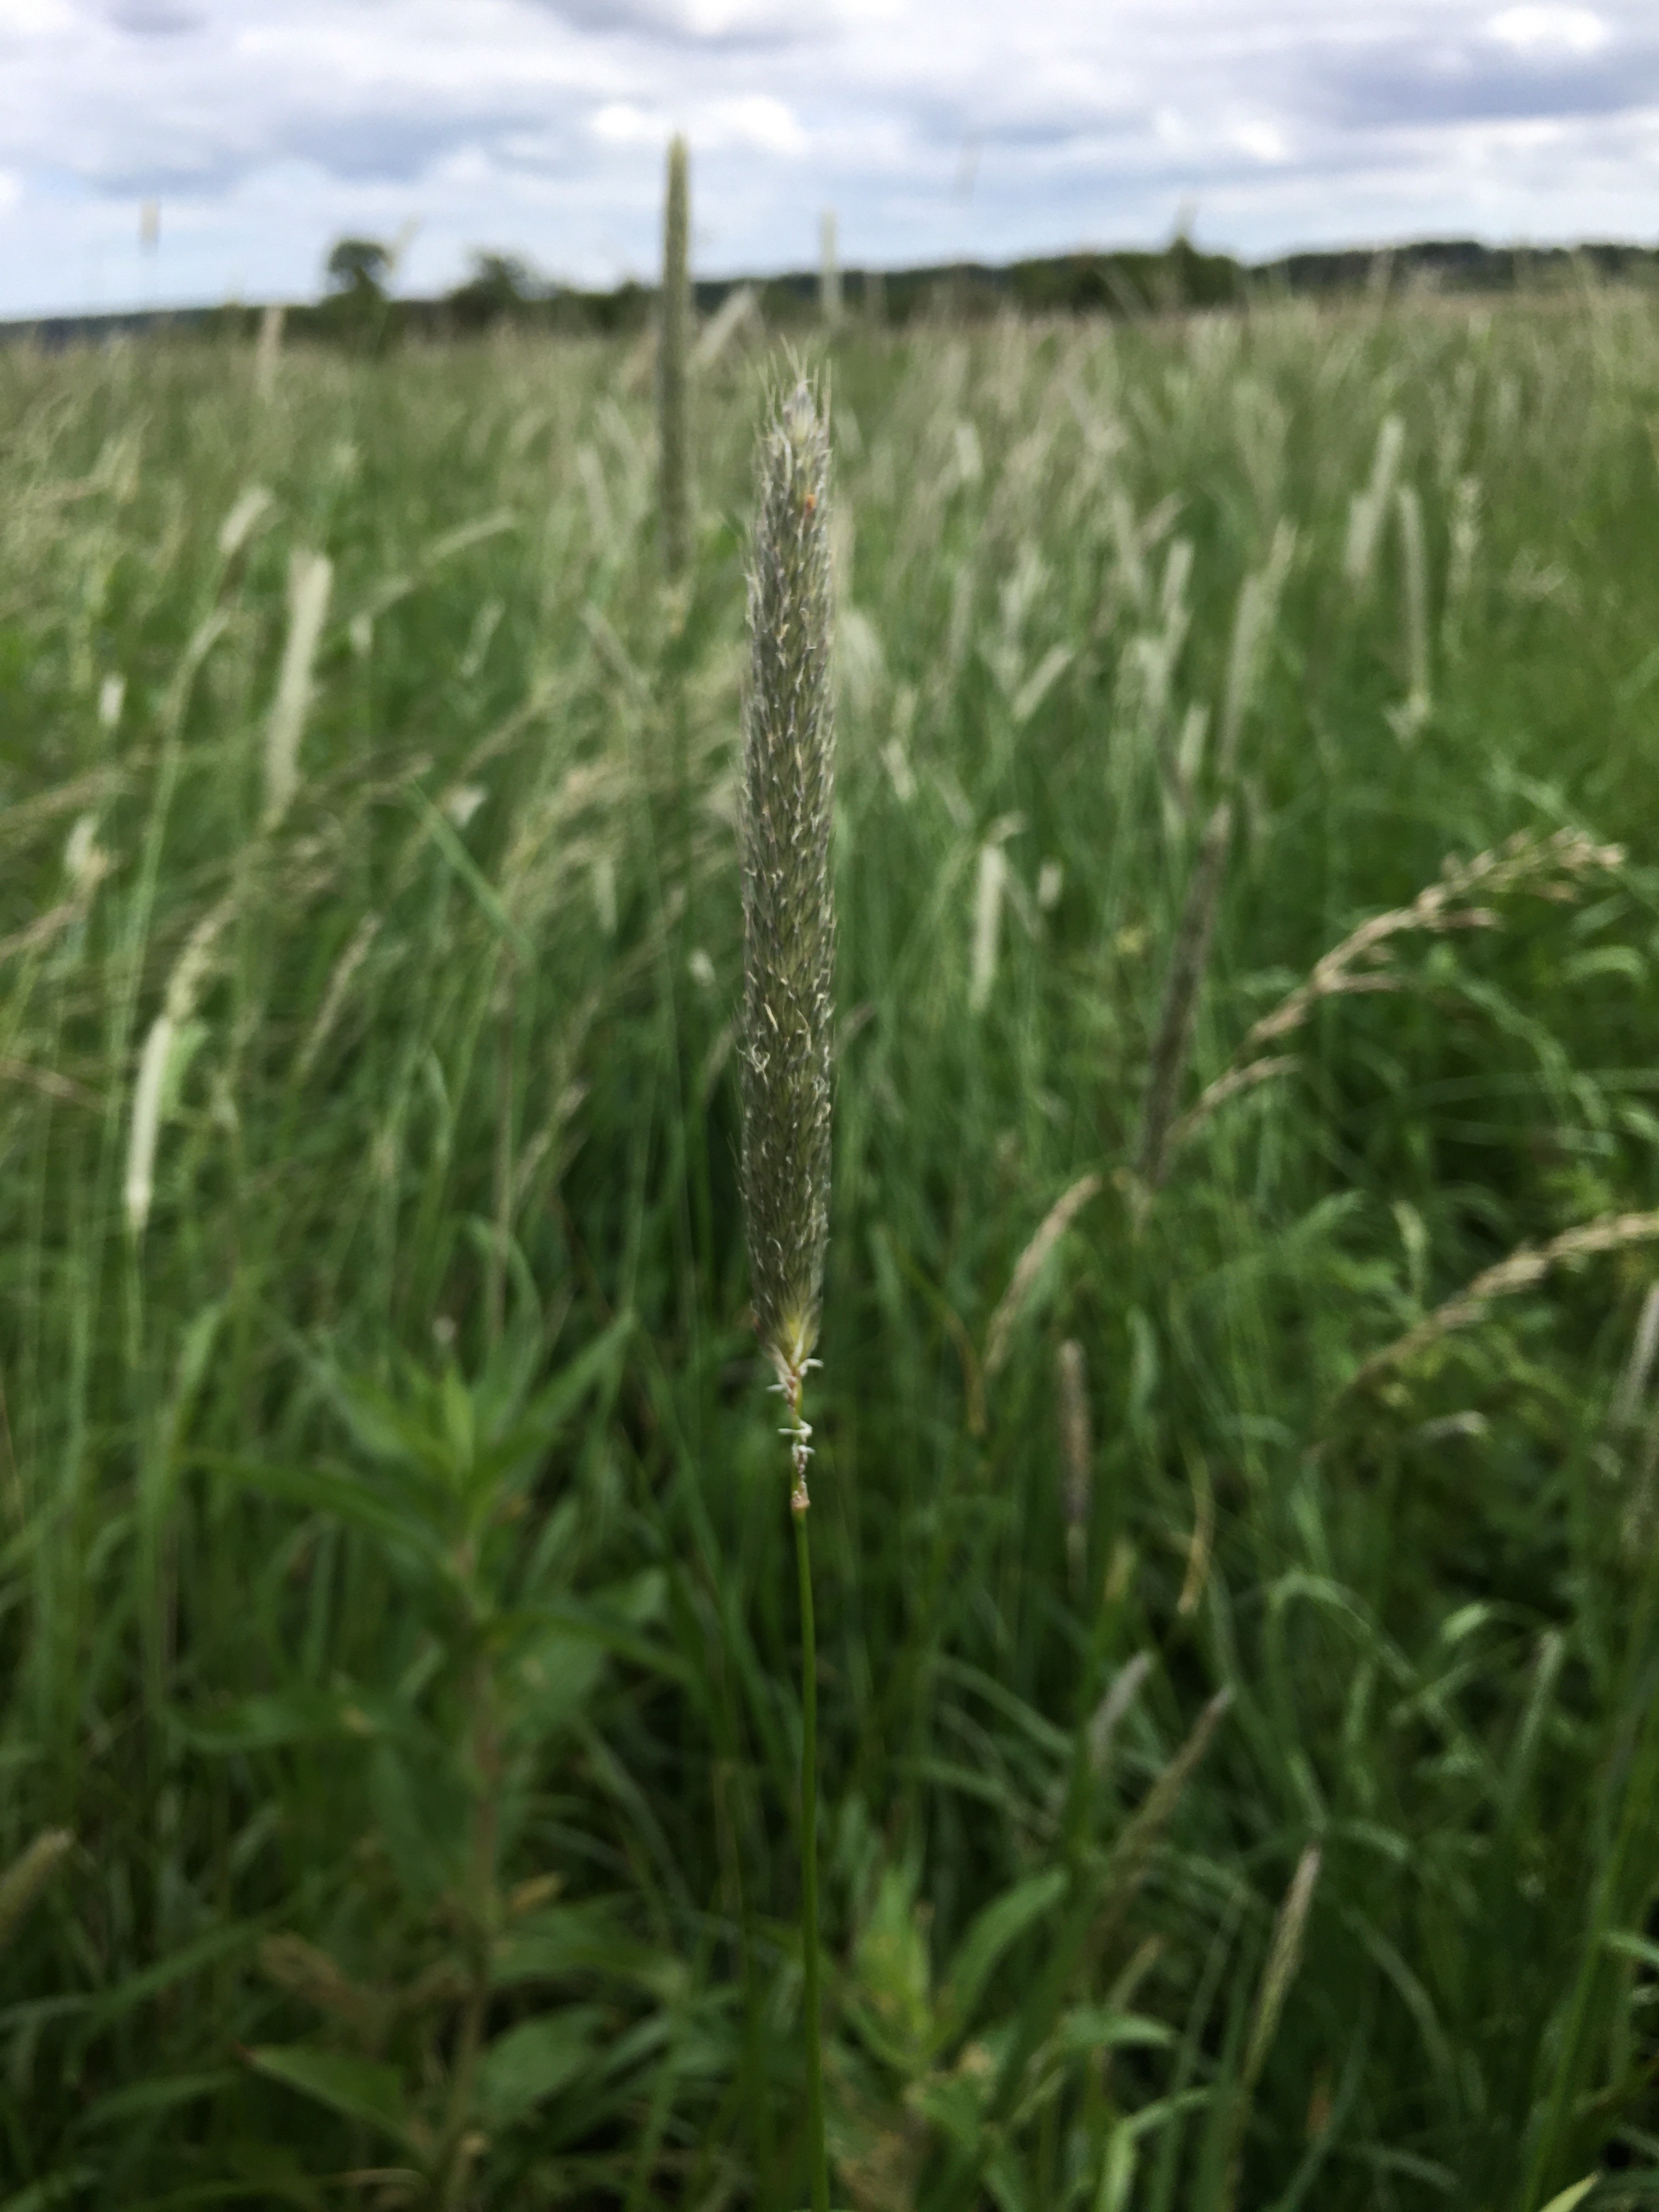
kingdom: Plantae
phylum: Tracheophyta
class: Liliopsida
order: Poales
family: Poaceae
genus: Alopecurus
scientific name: Alopecurus pratensis
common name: Eng-rævehale
